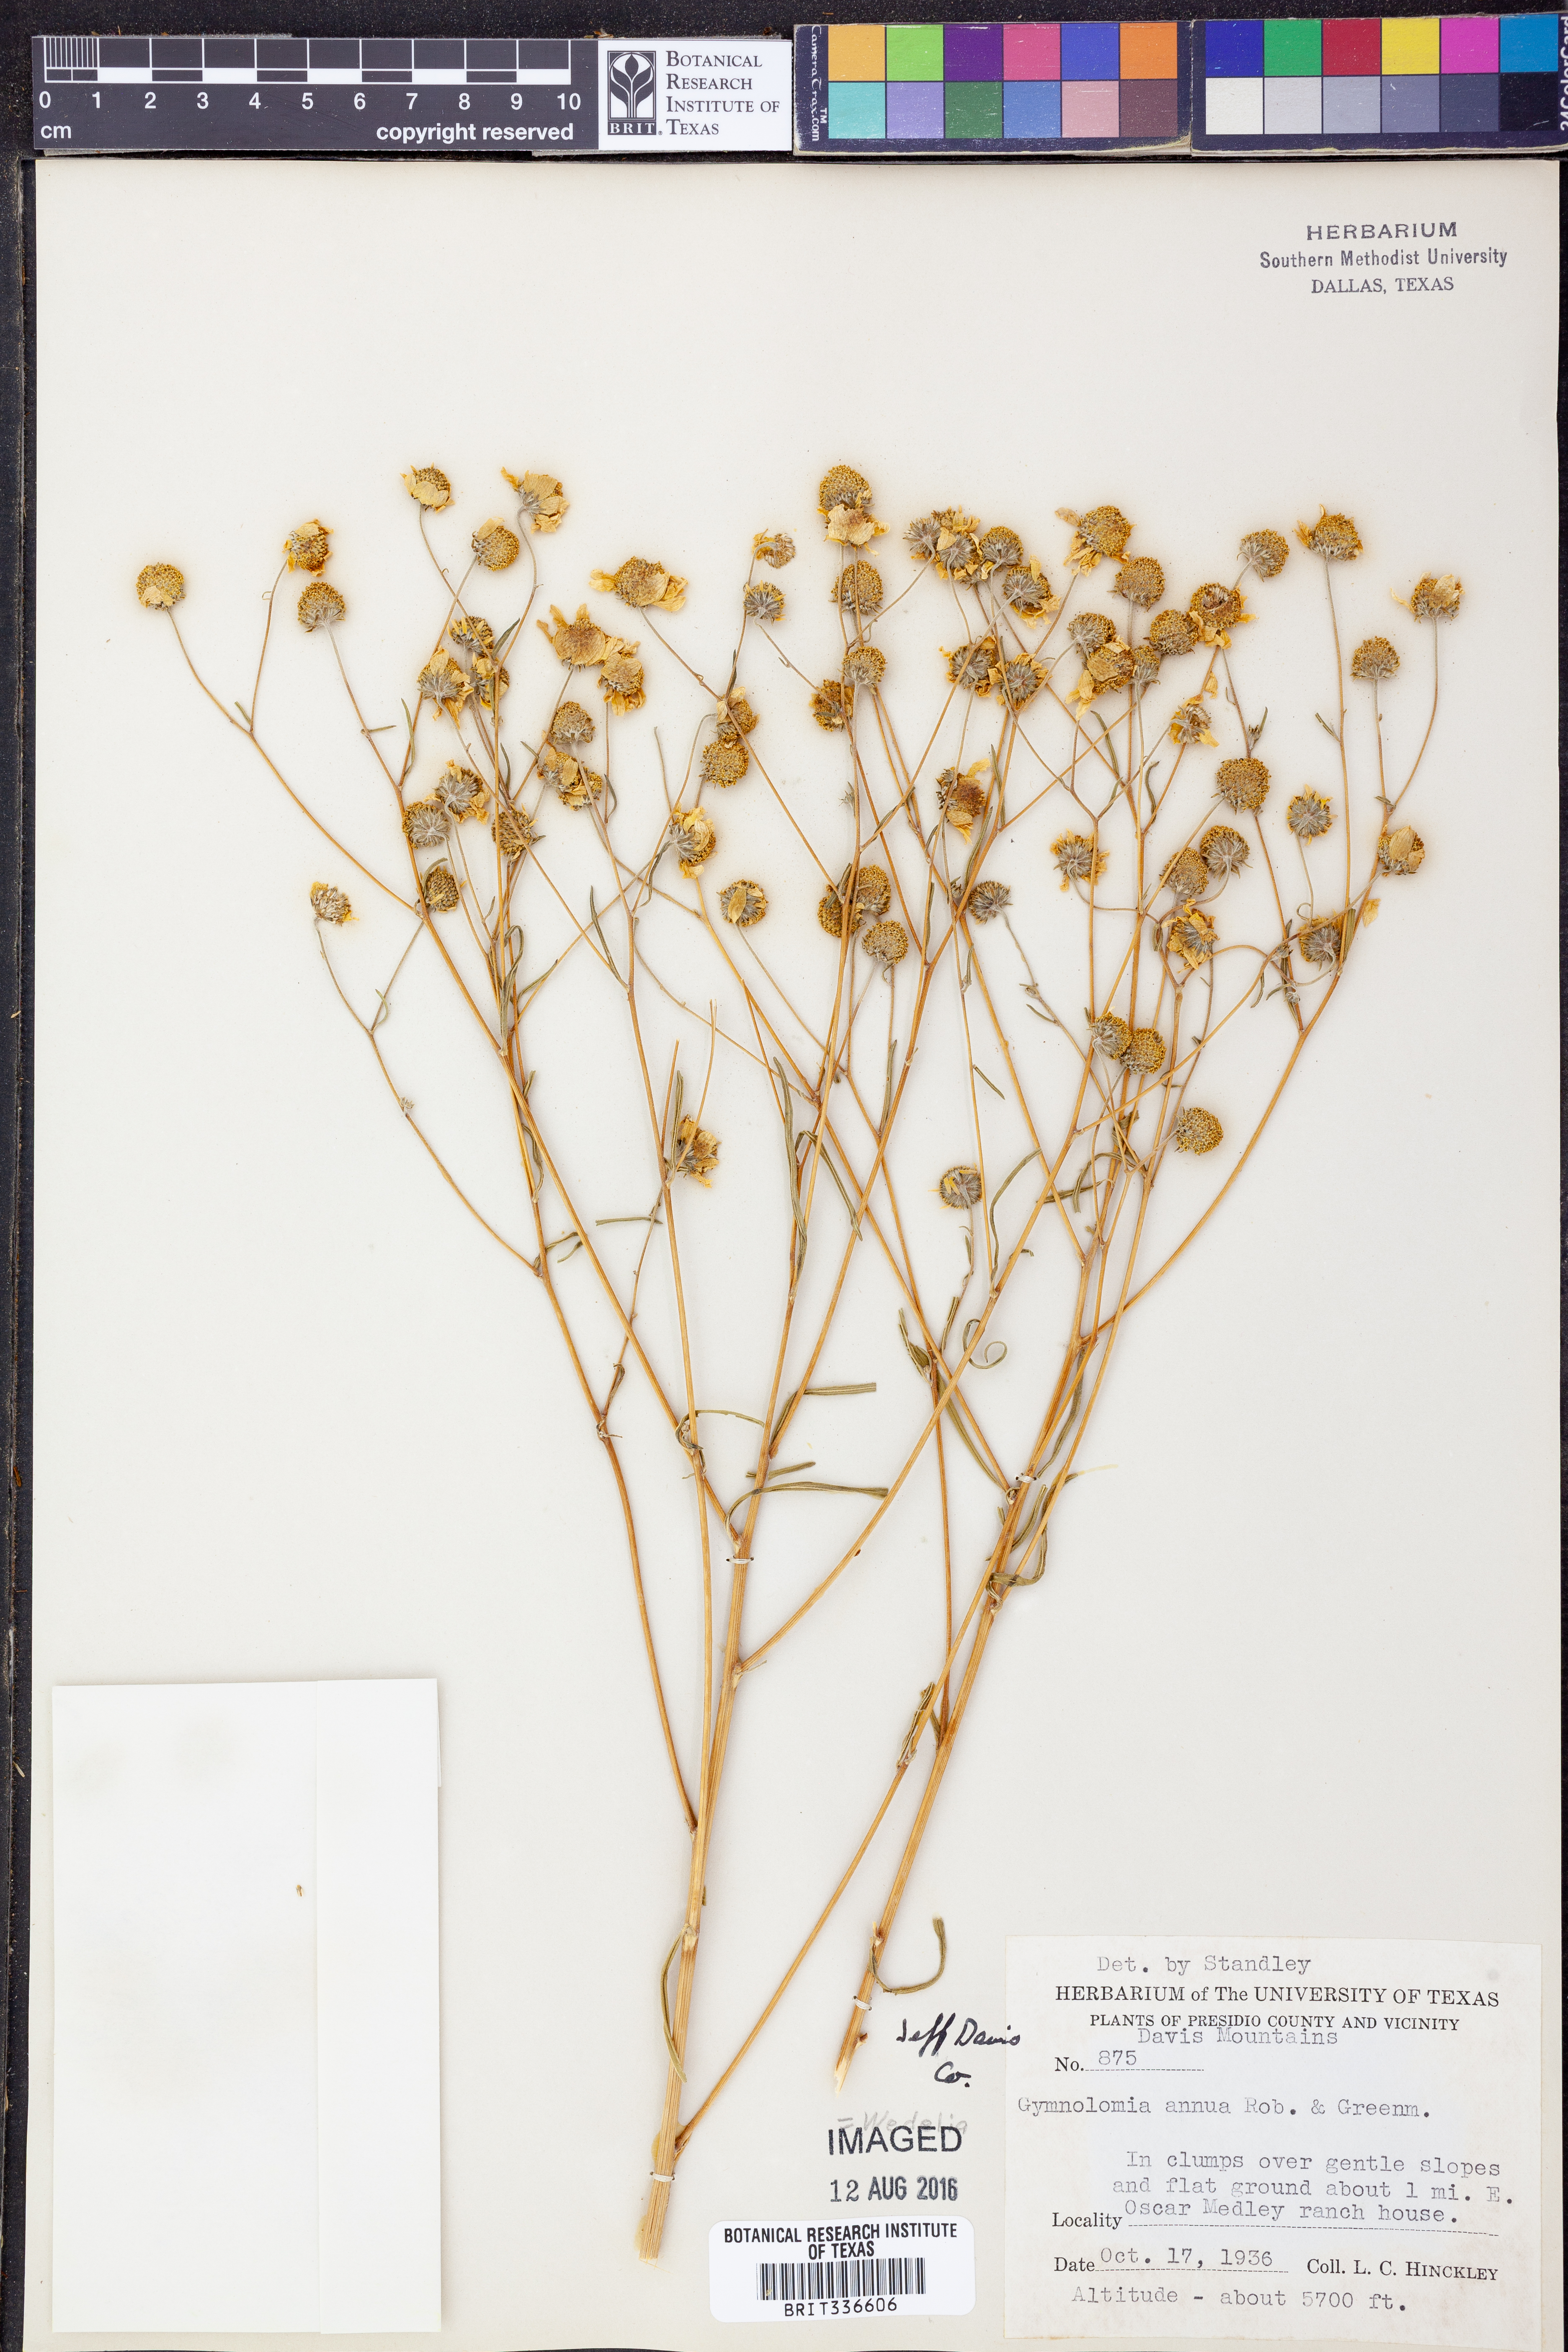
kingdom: Plantae
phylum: Tracheophyta
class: Magnoliopsida
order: Asterales
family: Asteraceae
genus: Heliopsis
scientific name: Heliopsis buphthalmoides
